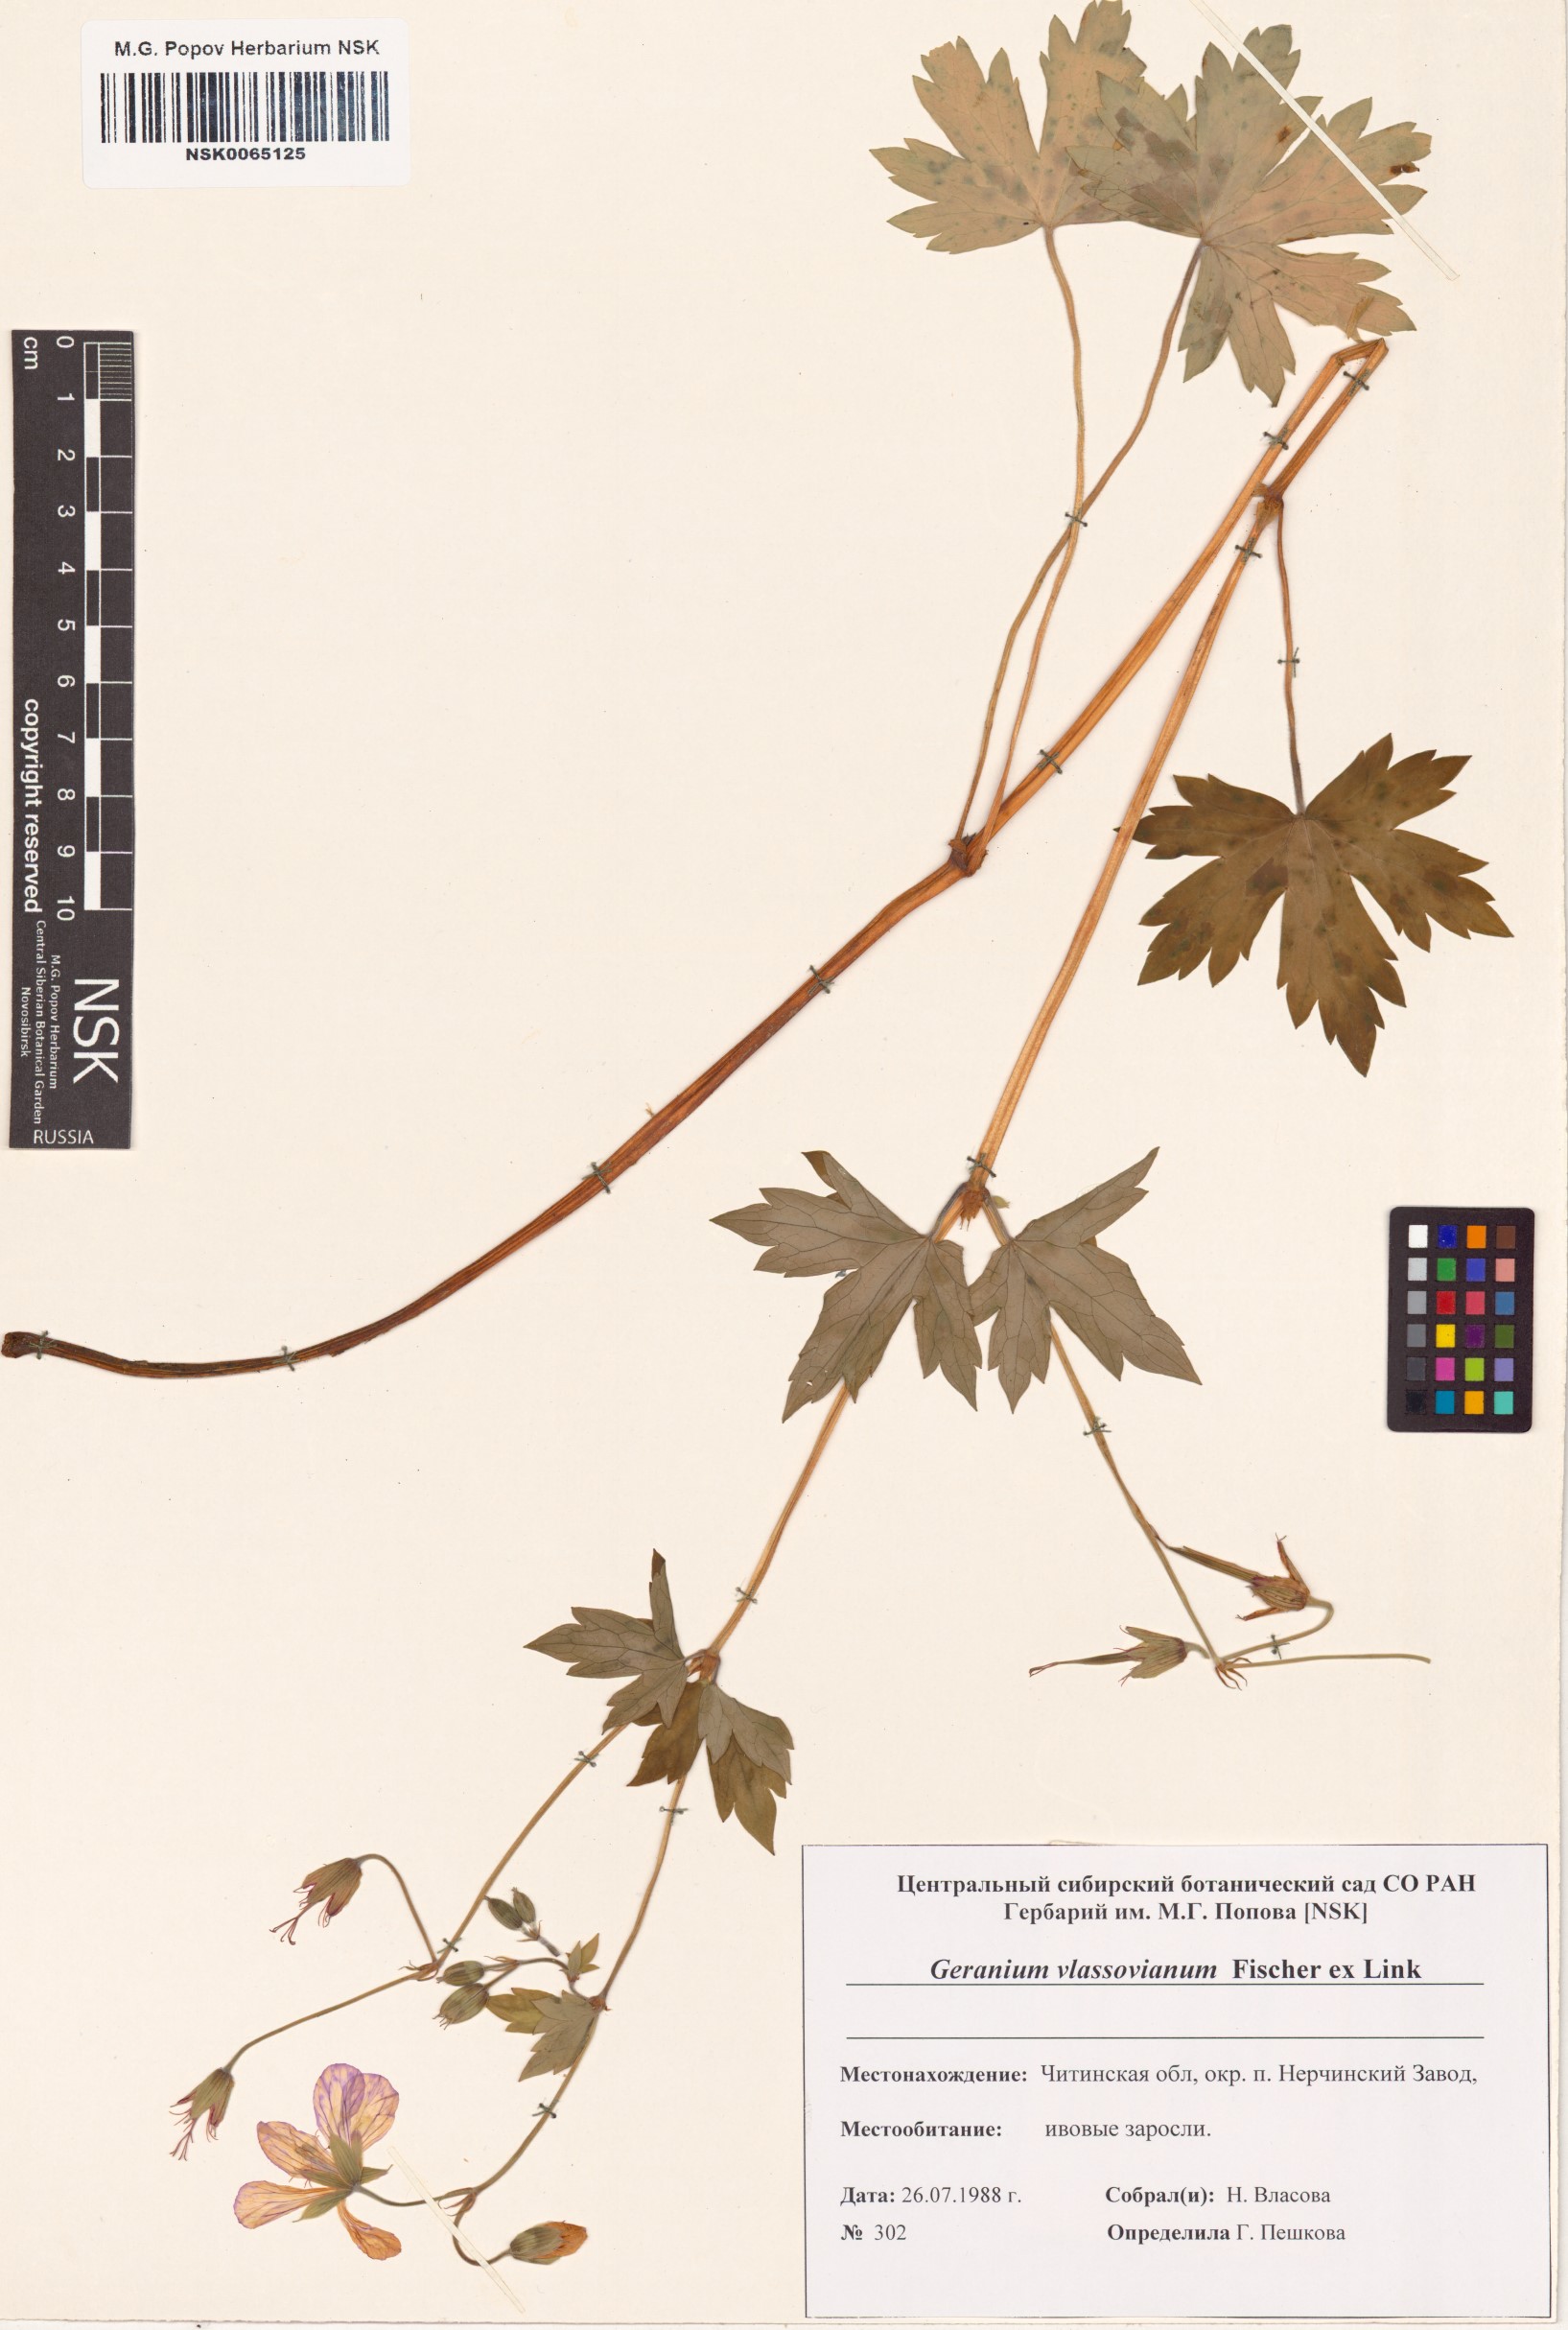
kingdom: Plantae
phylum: Tracheophyta
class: Magnoliopsida
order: Geraniales
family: Geraniaceae
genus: Geranium
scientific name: Geranium wlassovianum
